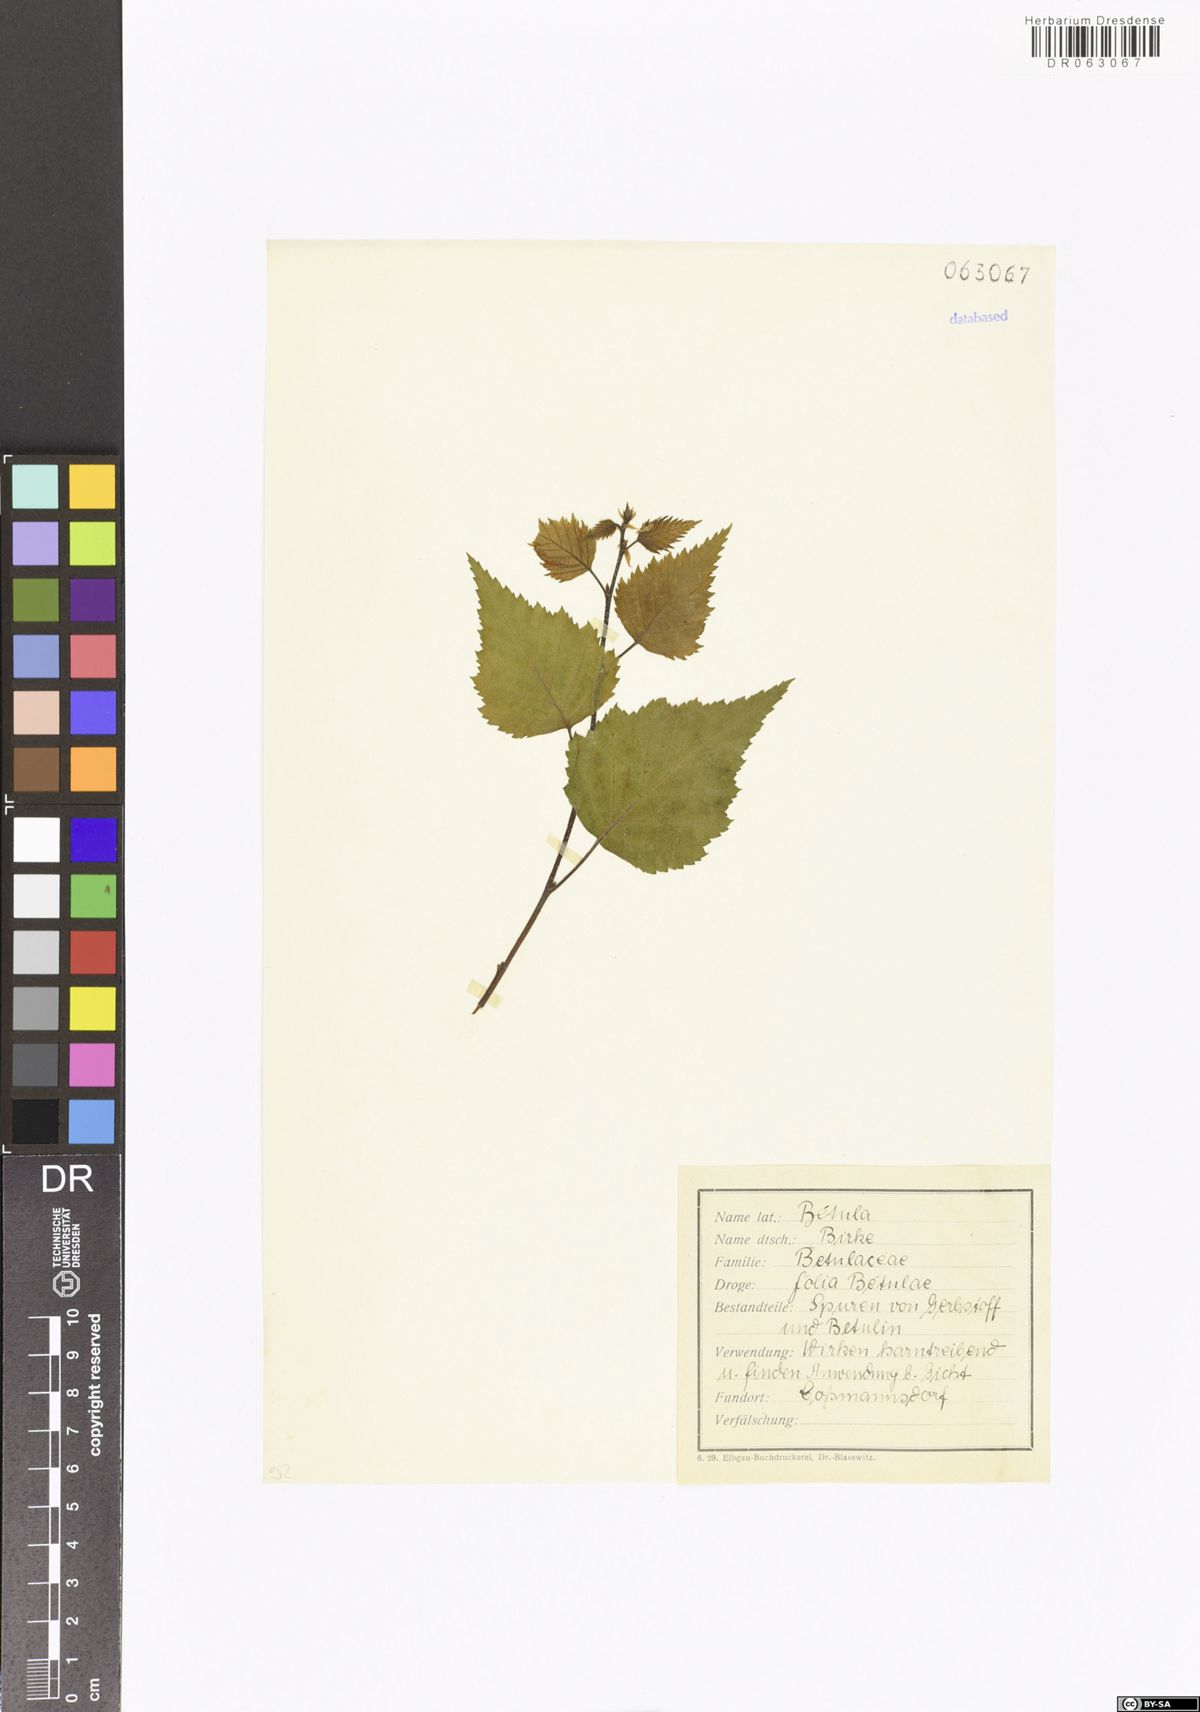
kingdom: Plantae
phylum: Tracheophyta
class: Magnoliopsida
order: Fagales
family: Betulaceae
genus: Betula
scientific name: Betula
